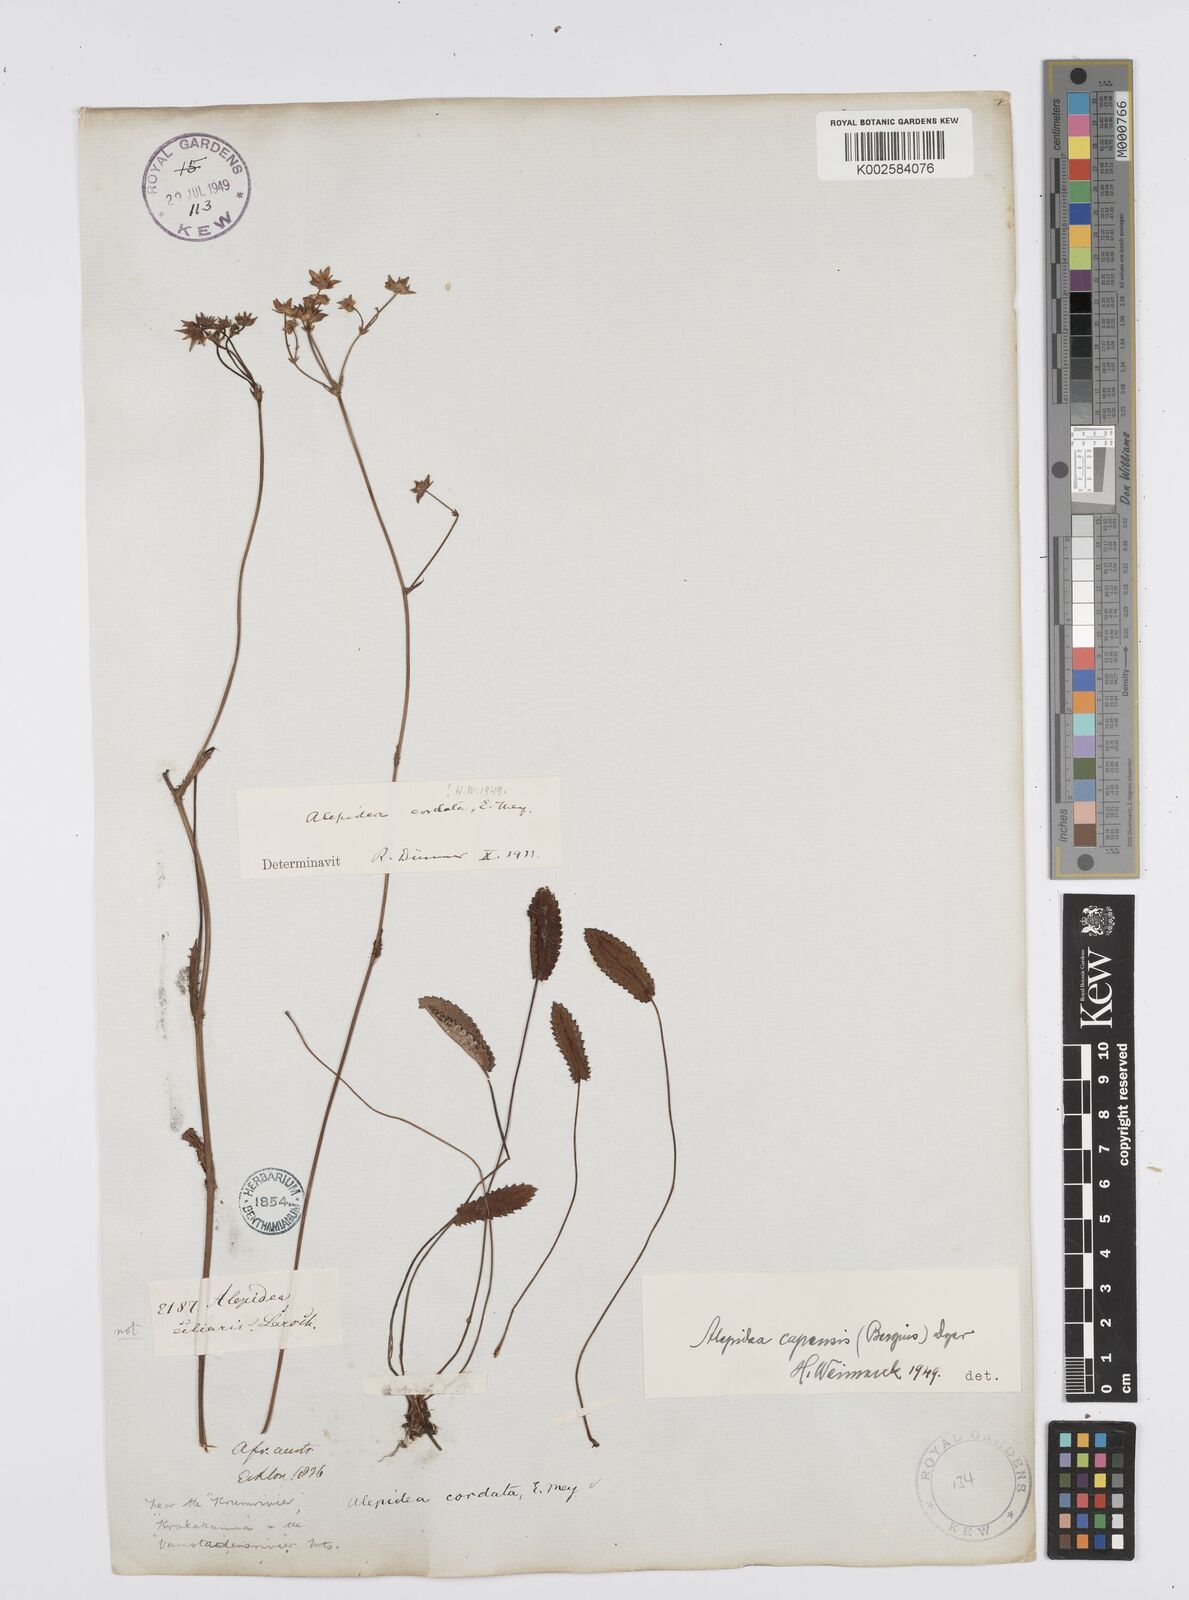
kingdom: Plantae
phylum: Tracheophyta
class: Magnoliopsida
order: Apiales
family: Apiaceae
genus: Alepidea
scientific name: Alepidea capensis
